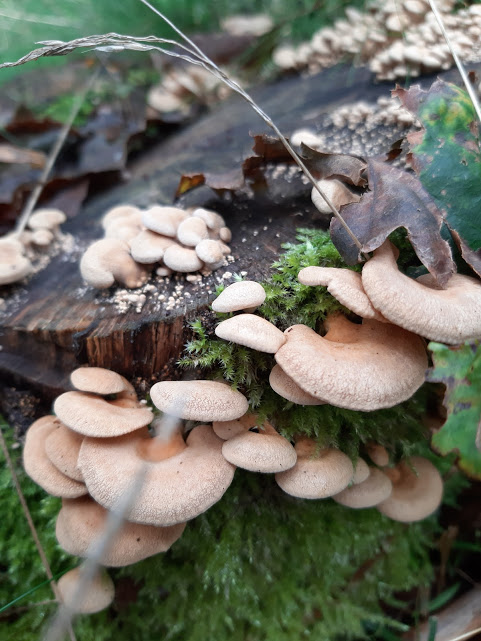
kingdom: Fungi
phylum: Basidiomycota
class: Agaricomycetes
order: Agaricales
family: Mycenaceae
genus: Panellus
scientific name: Panellus stipticus
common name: kliddet epaulethat
